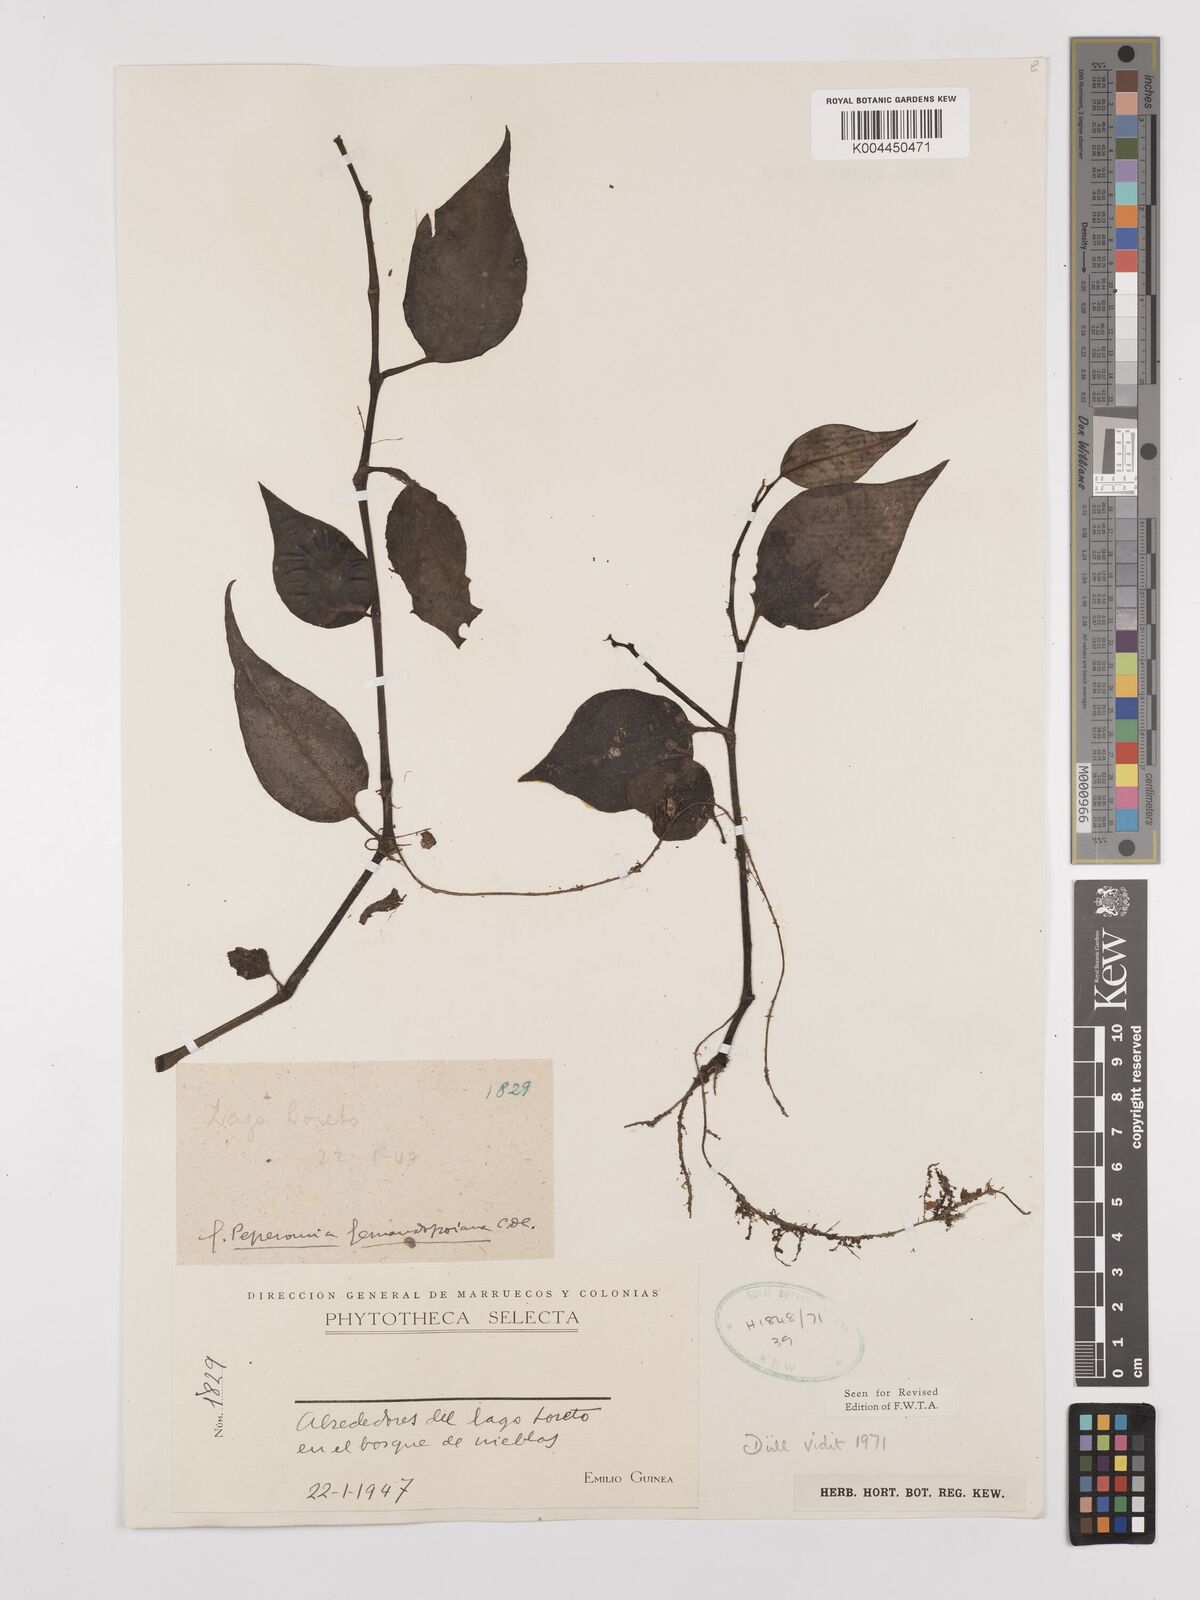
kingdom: Plantae
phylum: Tracheophyta
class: Magnoliopsida
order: Piperales
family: Piperaceae
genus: Peperomia
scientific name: Peperomia fernandopoiana
